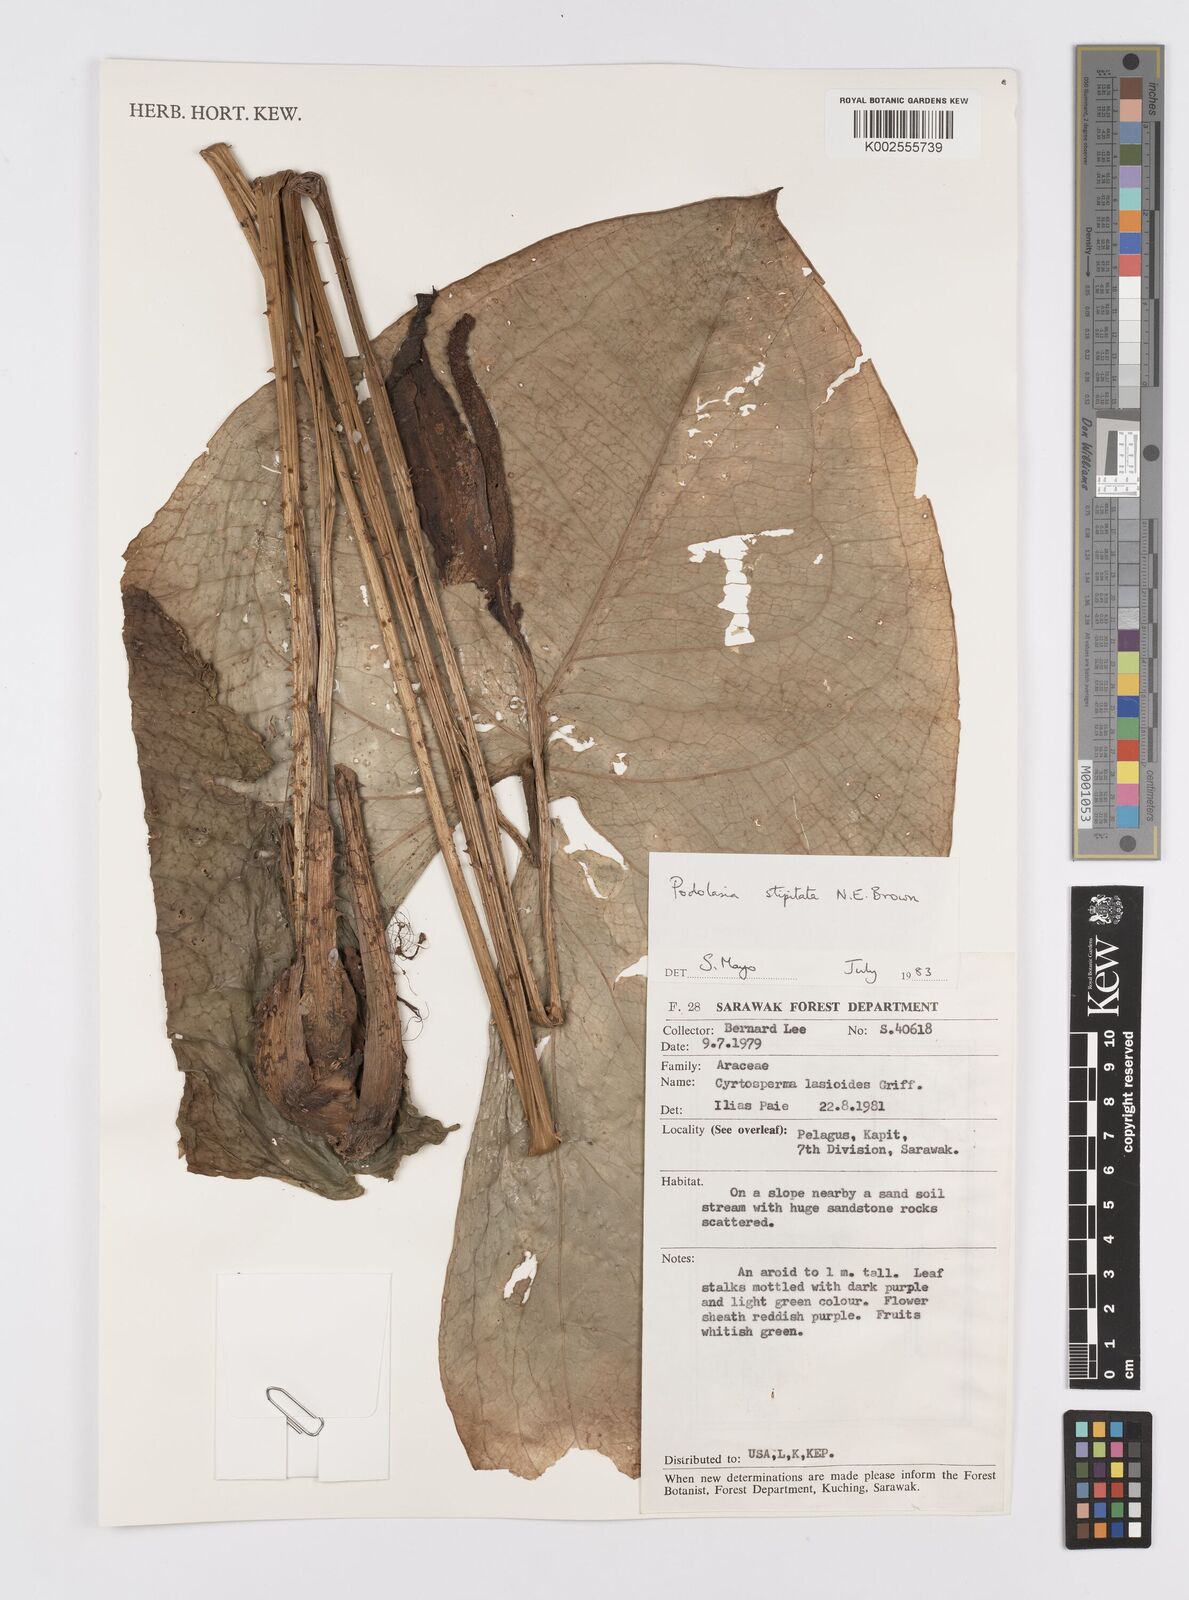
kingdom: Plantae
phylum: Tracheophyta
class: Liliopsida
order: Alismatales
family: Araceae
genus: Podolasia
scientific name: Podolasia stipitata
